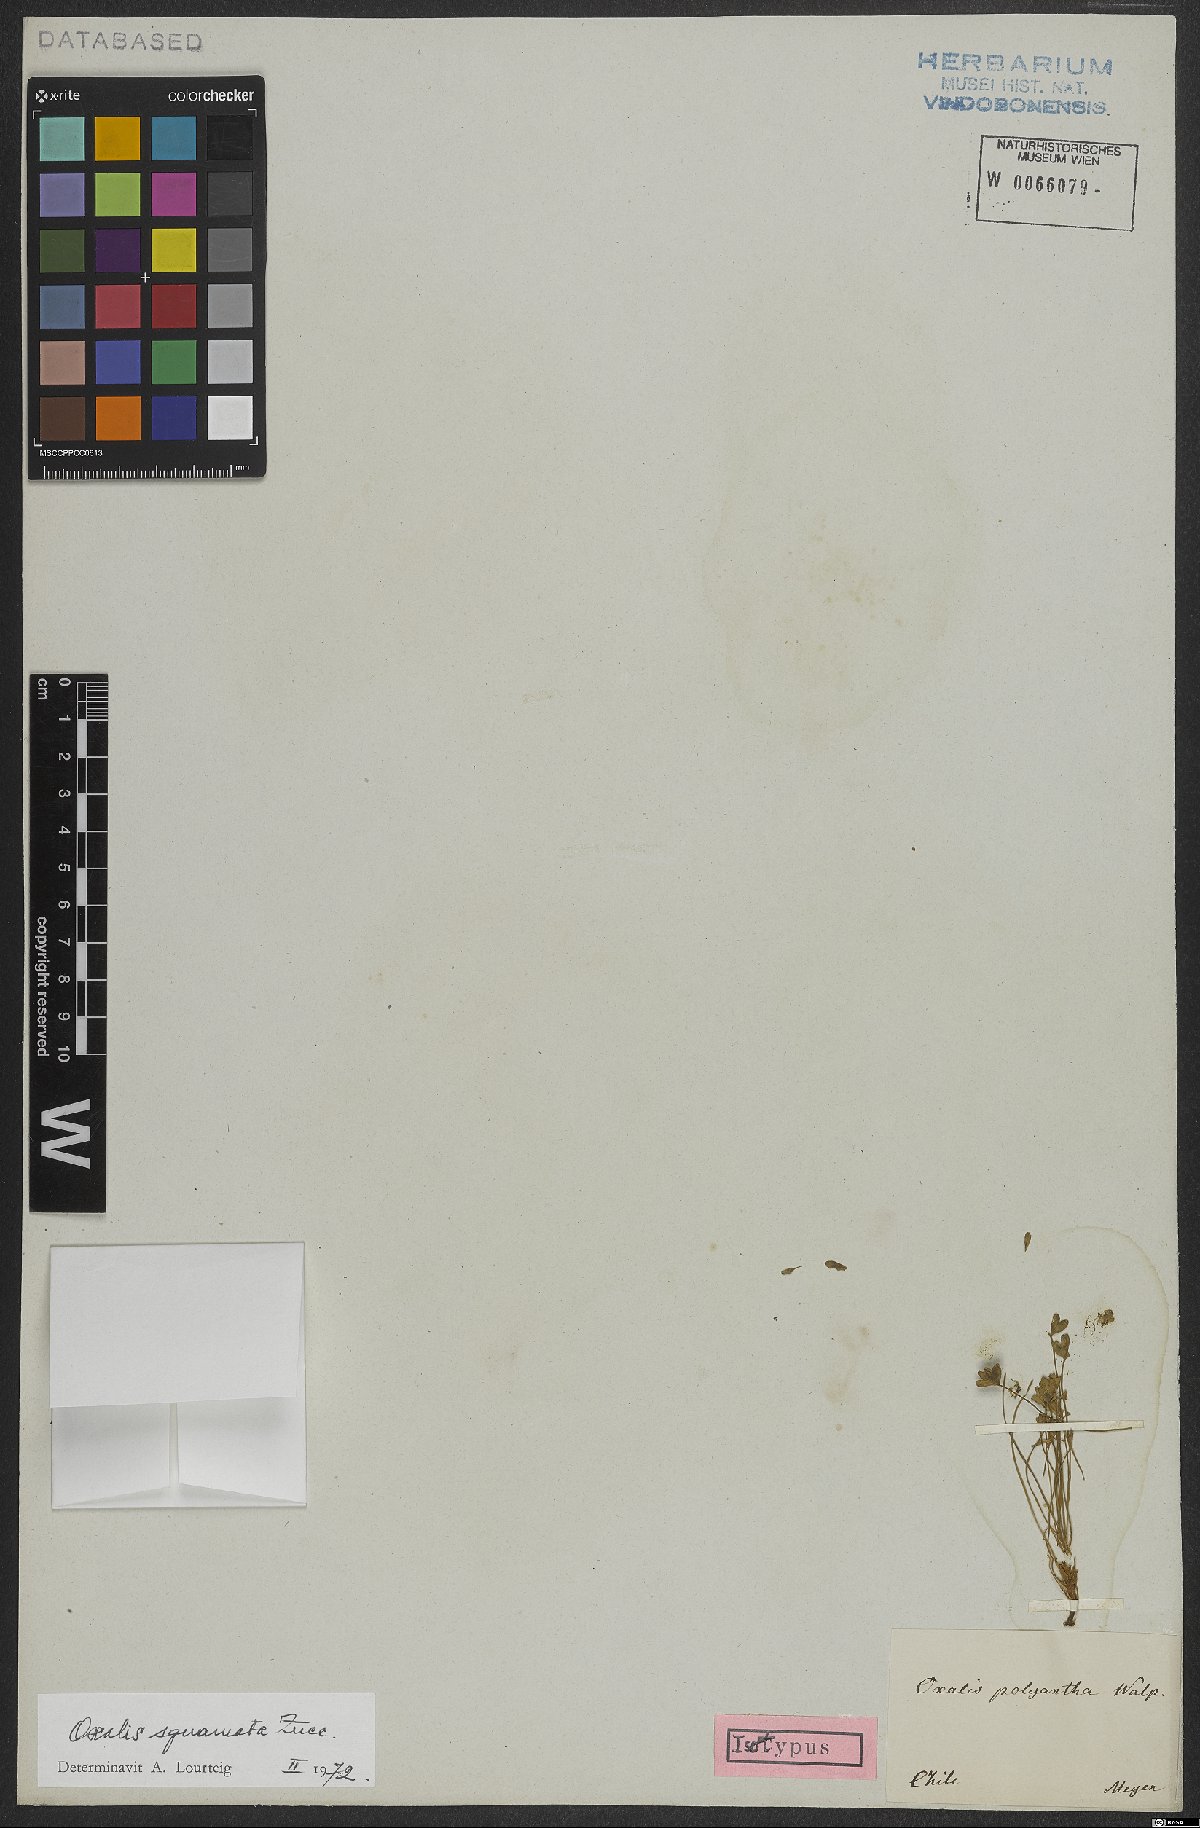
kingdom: Plantae
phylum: Tracheophyta
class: Magnoliopsida
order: Oxalidales
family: Oxalidaceae
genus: Oxalis
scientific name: Oxalis squamata
